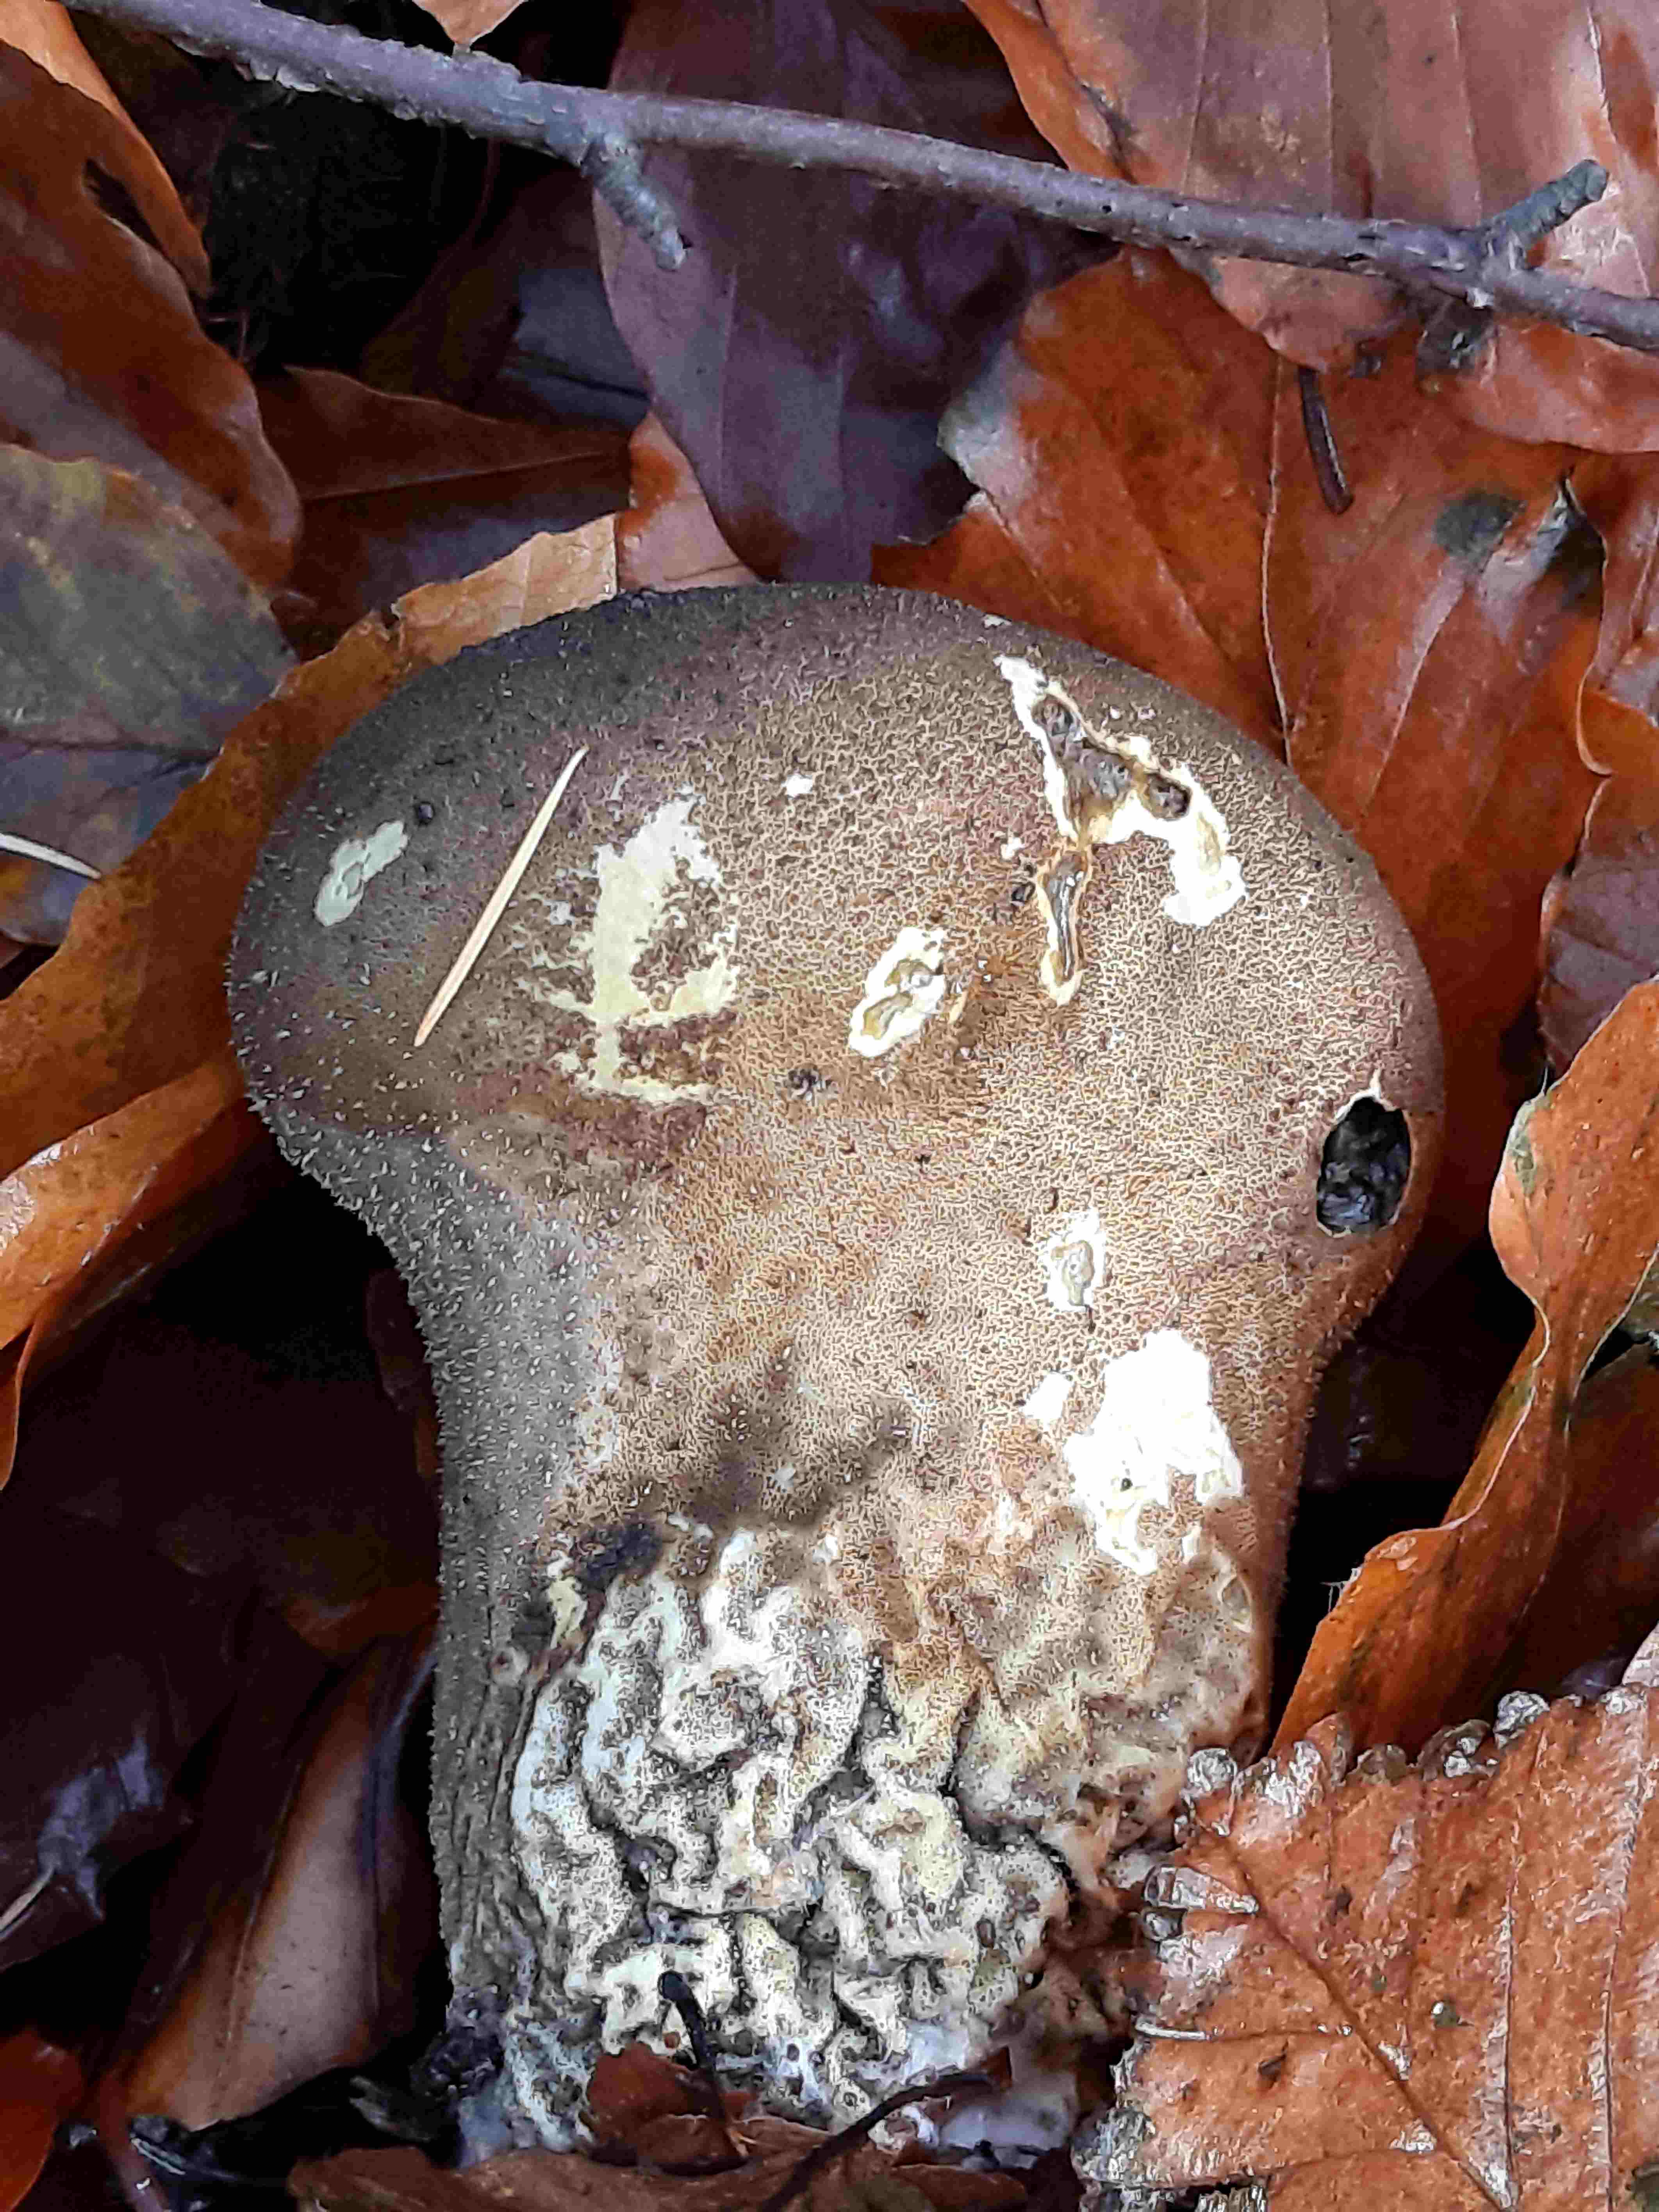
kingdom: Fungi
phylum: Basidiomycota
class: Agaricomycetes
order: Agaricales
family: Lycoperdaceae
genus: Lycoperdon
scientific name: Lycoperdon excipuliforme
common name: højstokket støvbold
